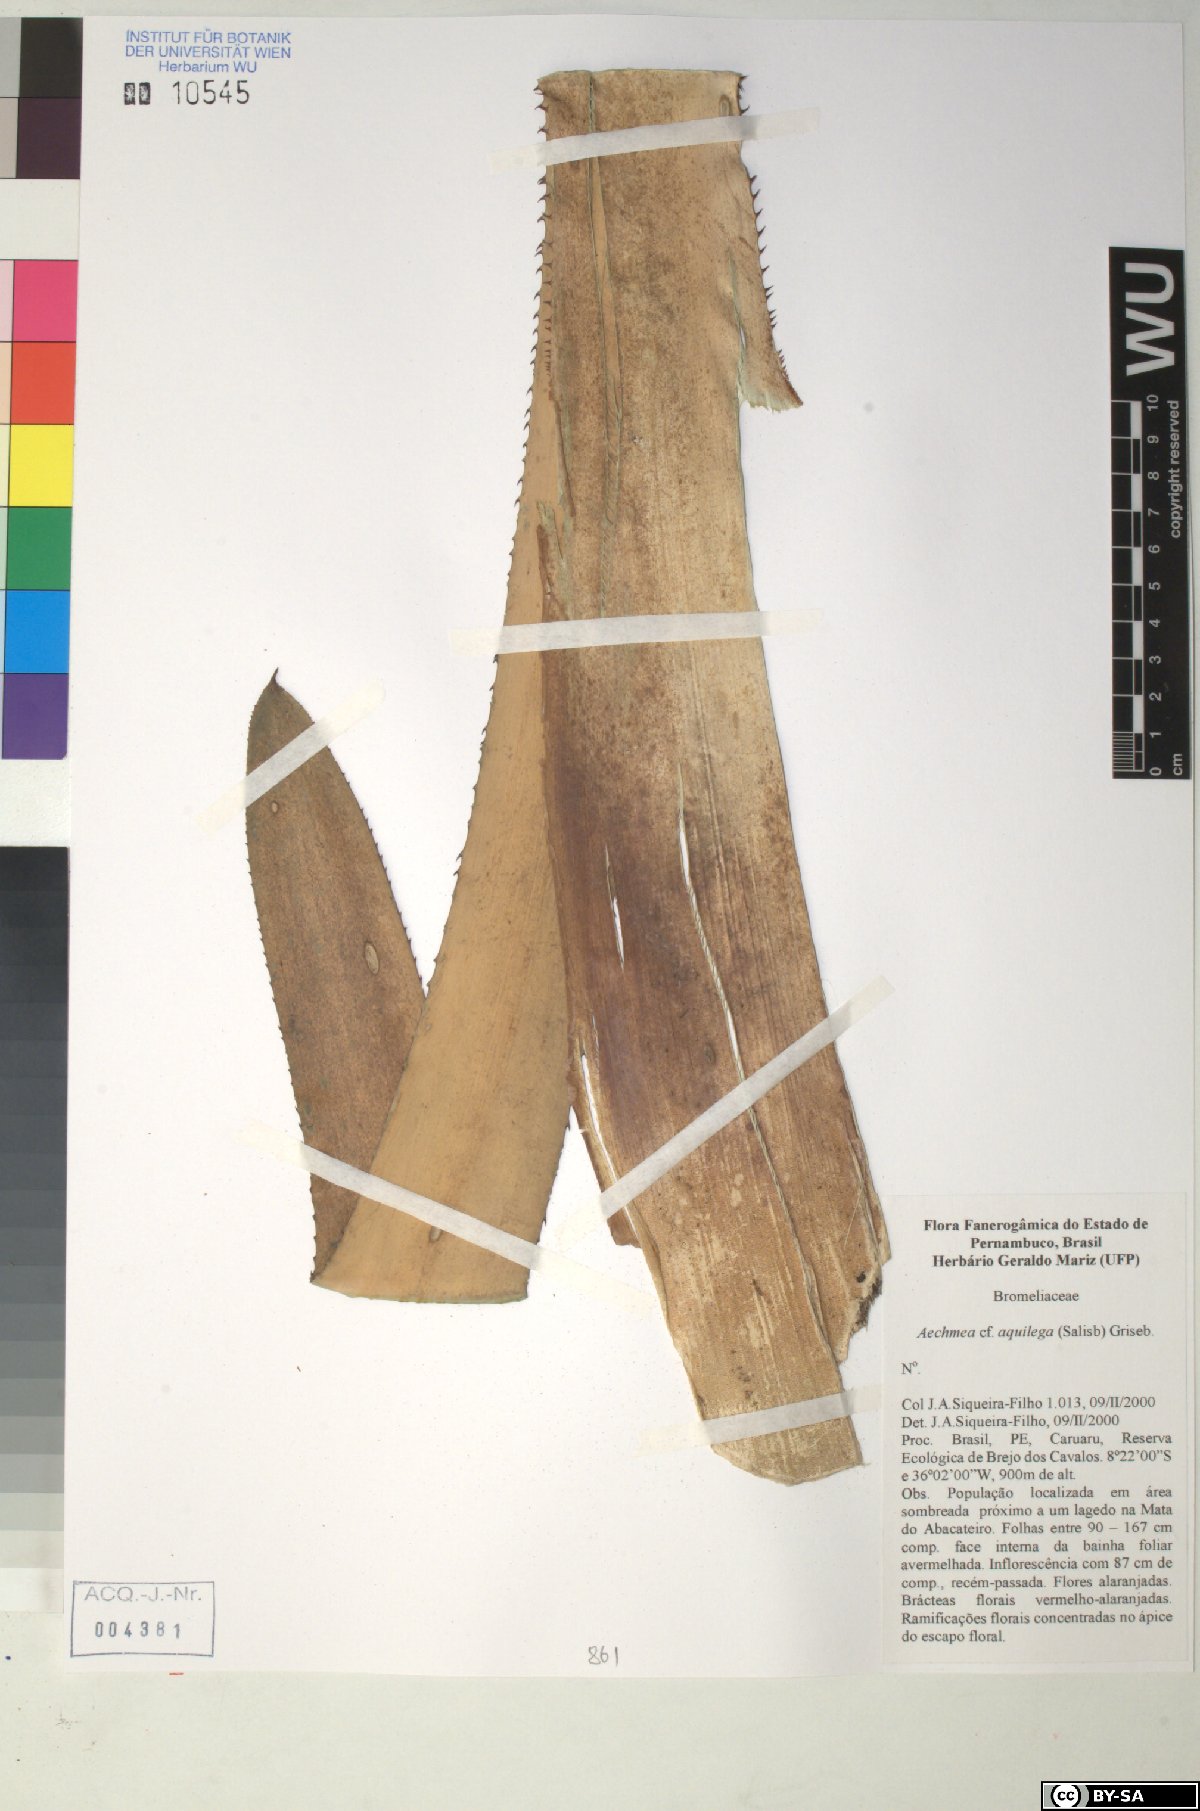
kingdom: Plantae
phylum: Tracheophyta
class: Liliopsida
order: Poales
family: Bromeliaceae
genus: Aechmea
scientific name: Aechmea aquilega
